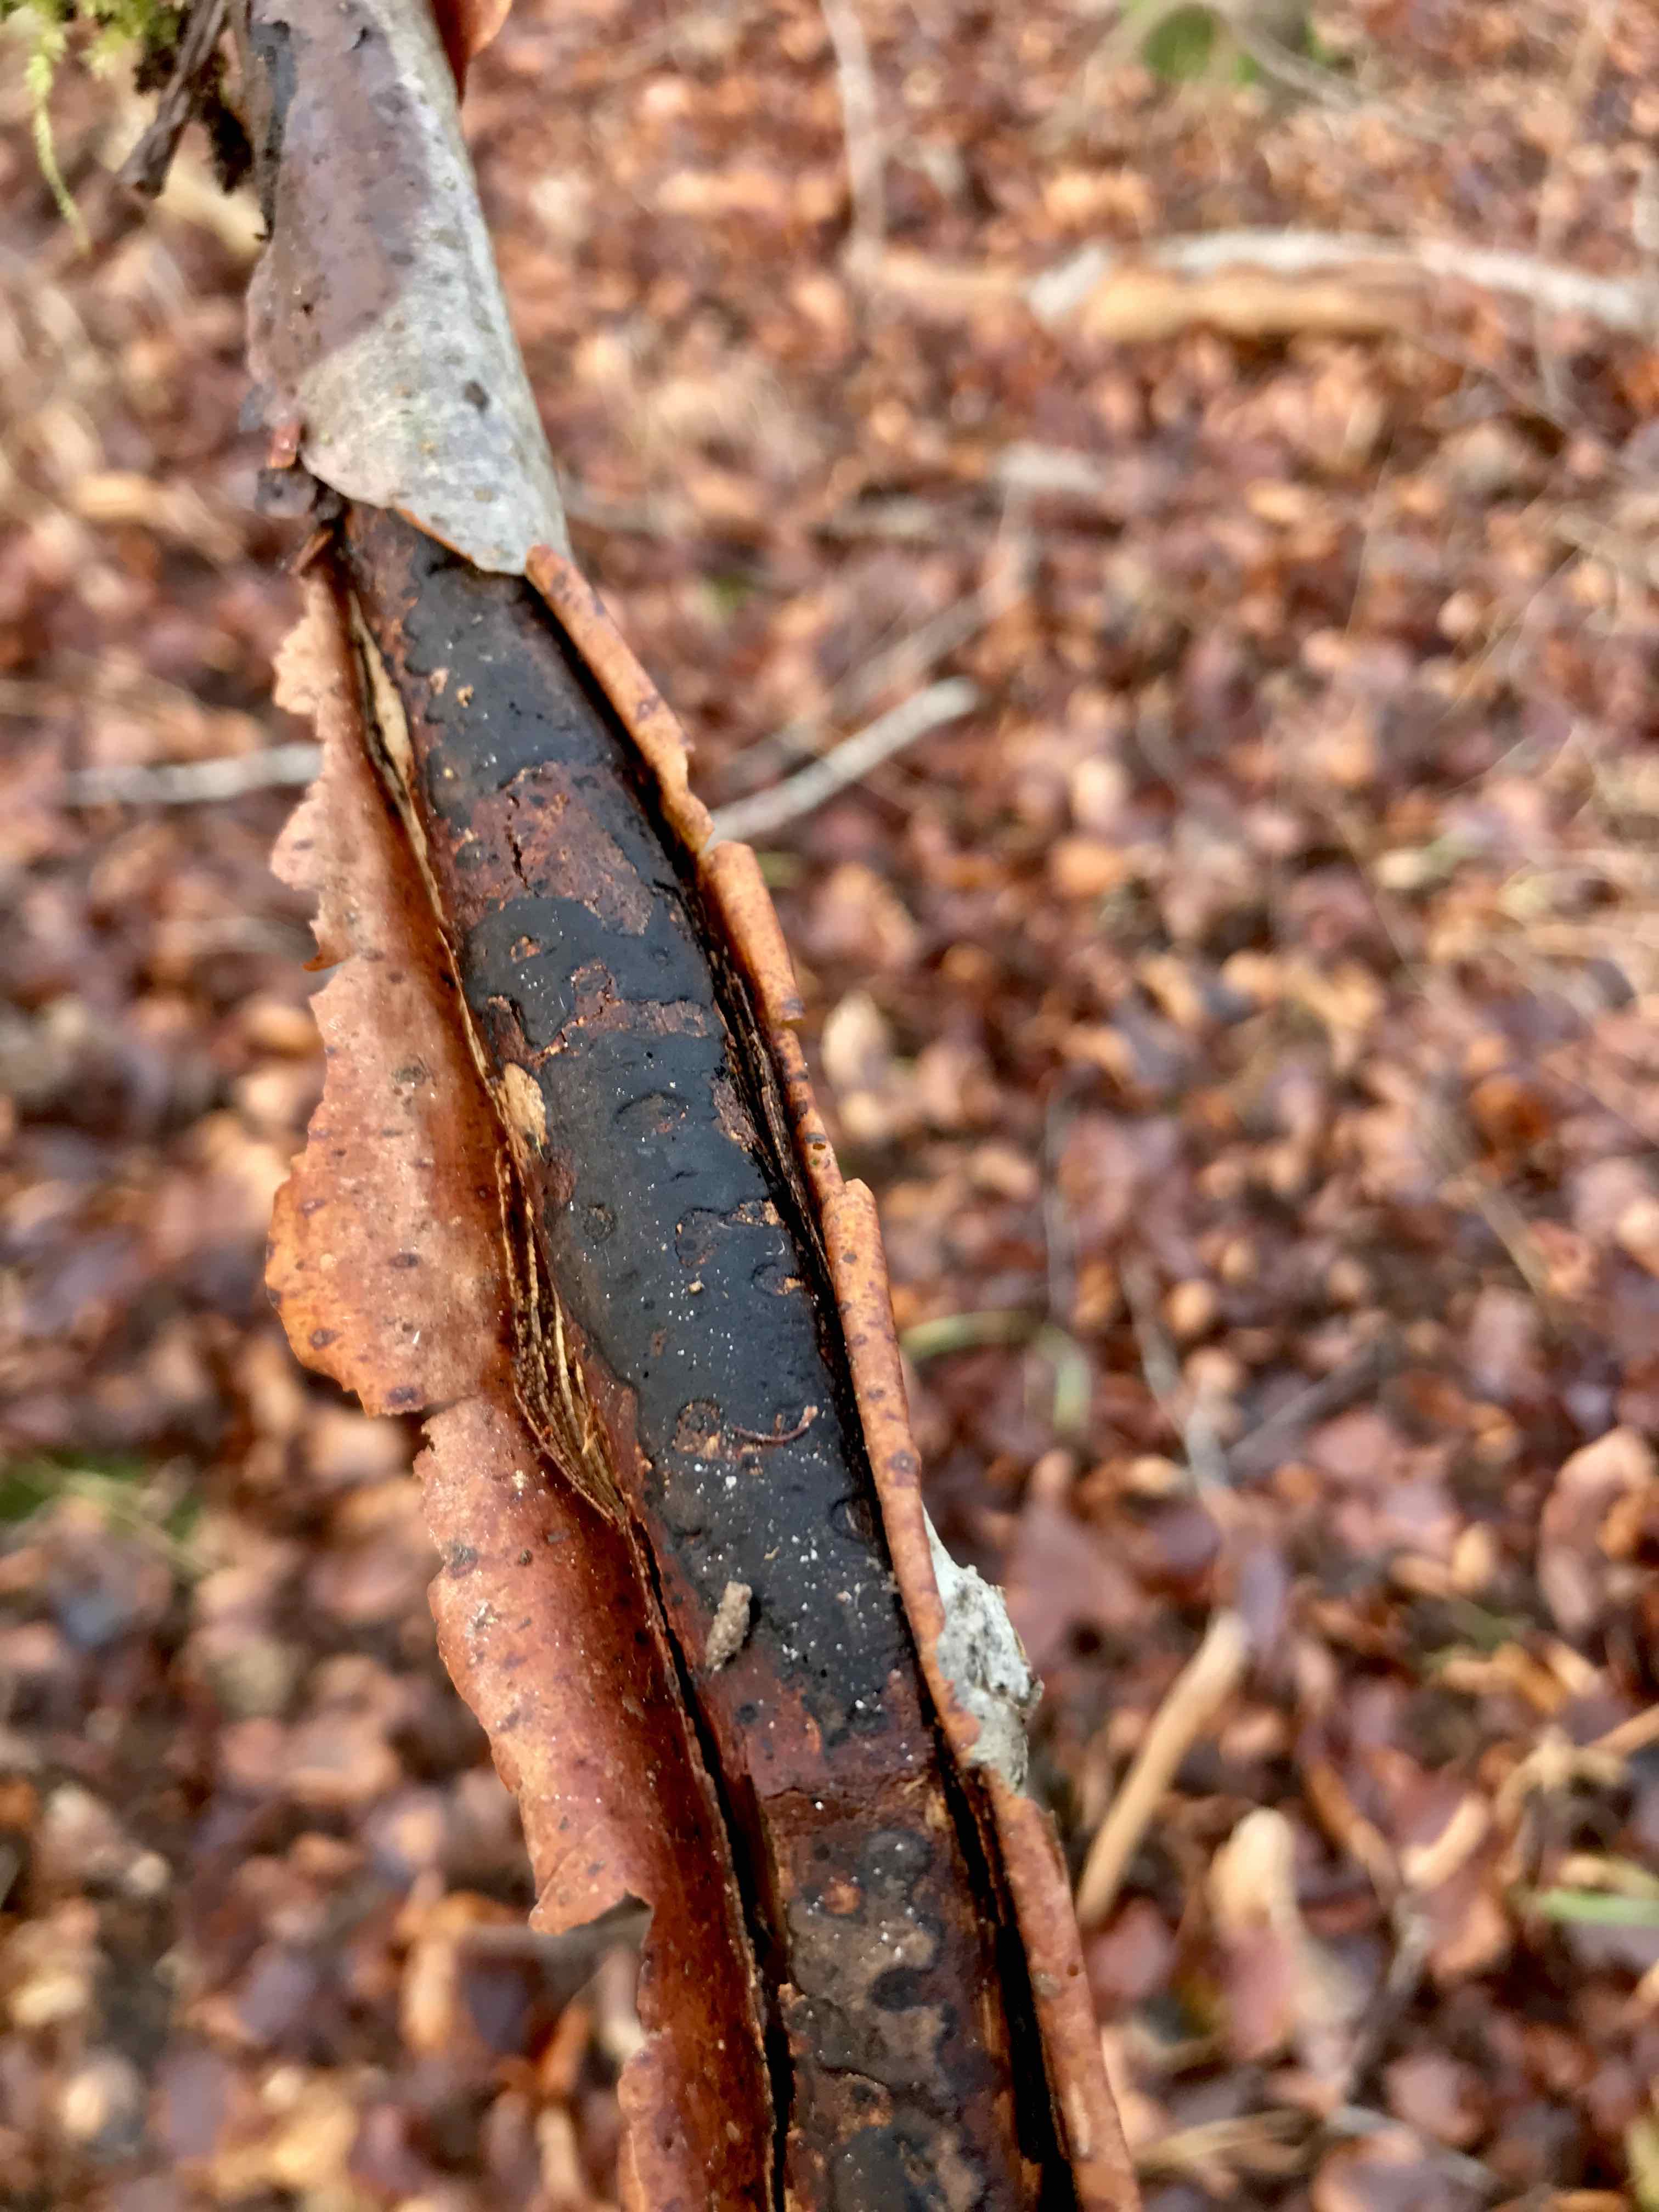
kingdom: Fungi
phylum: Ascomycota
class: Sordariomycetes
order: Xylariales
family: Diatrypaceae
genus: Diatrype
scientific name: Diatrype decorticata
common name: barksprænger-kulskorpe
